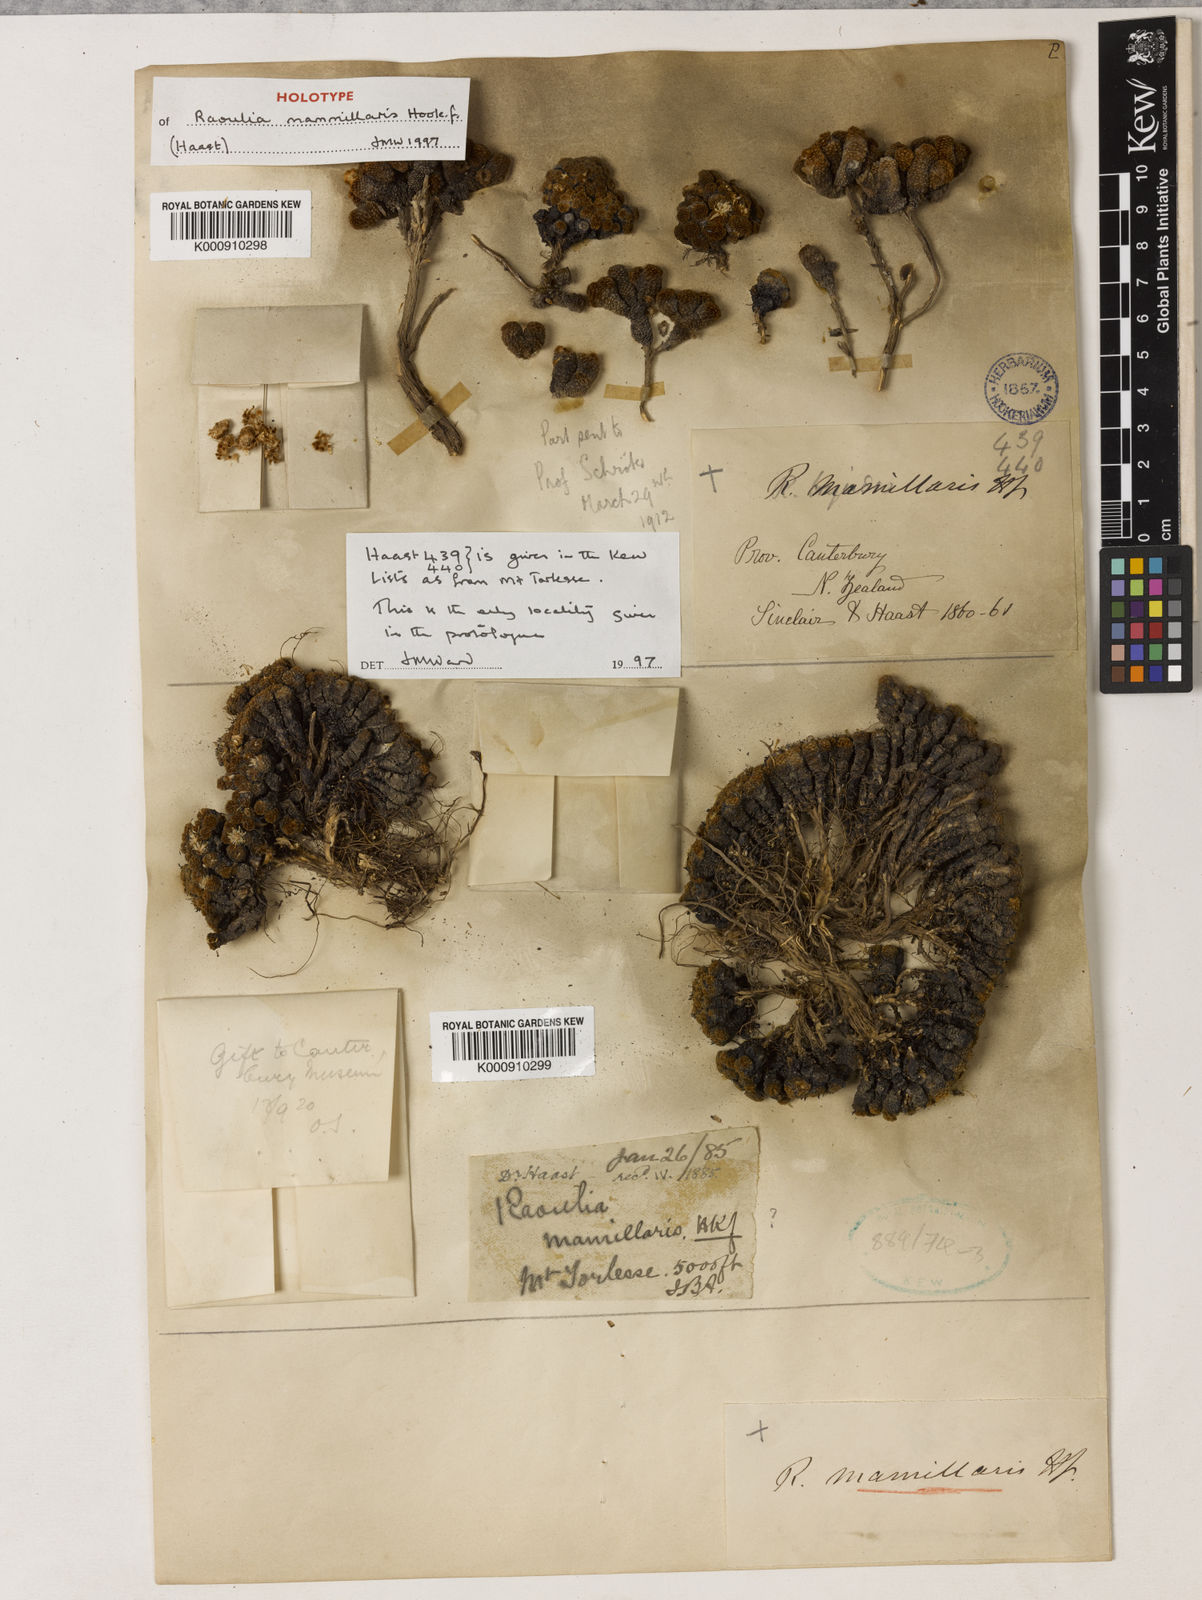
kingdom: Plantae
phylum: Tracheophyta
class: Magnoliopsida
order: Asterales
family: Asteraceae
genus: Raoulia
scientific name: Raoulia
